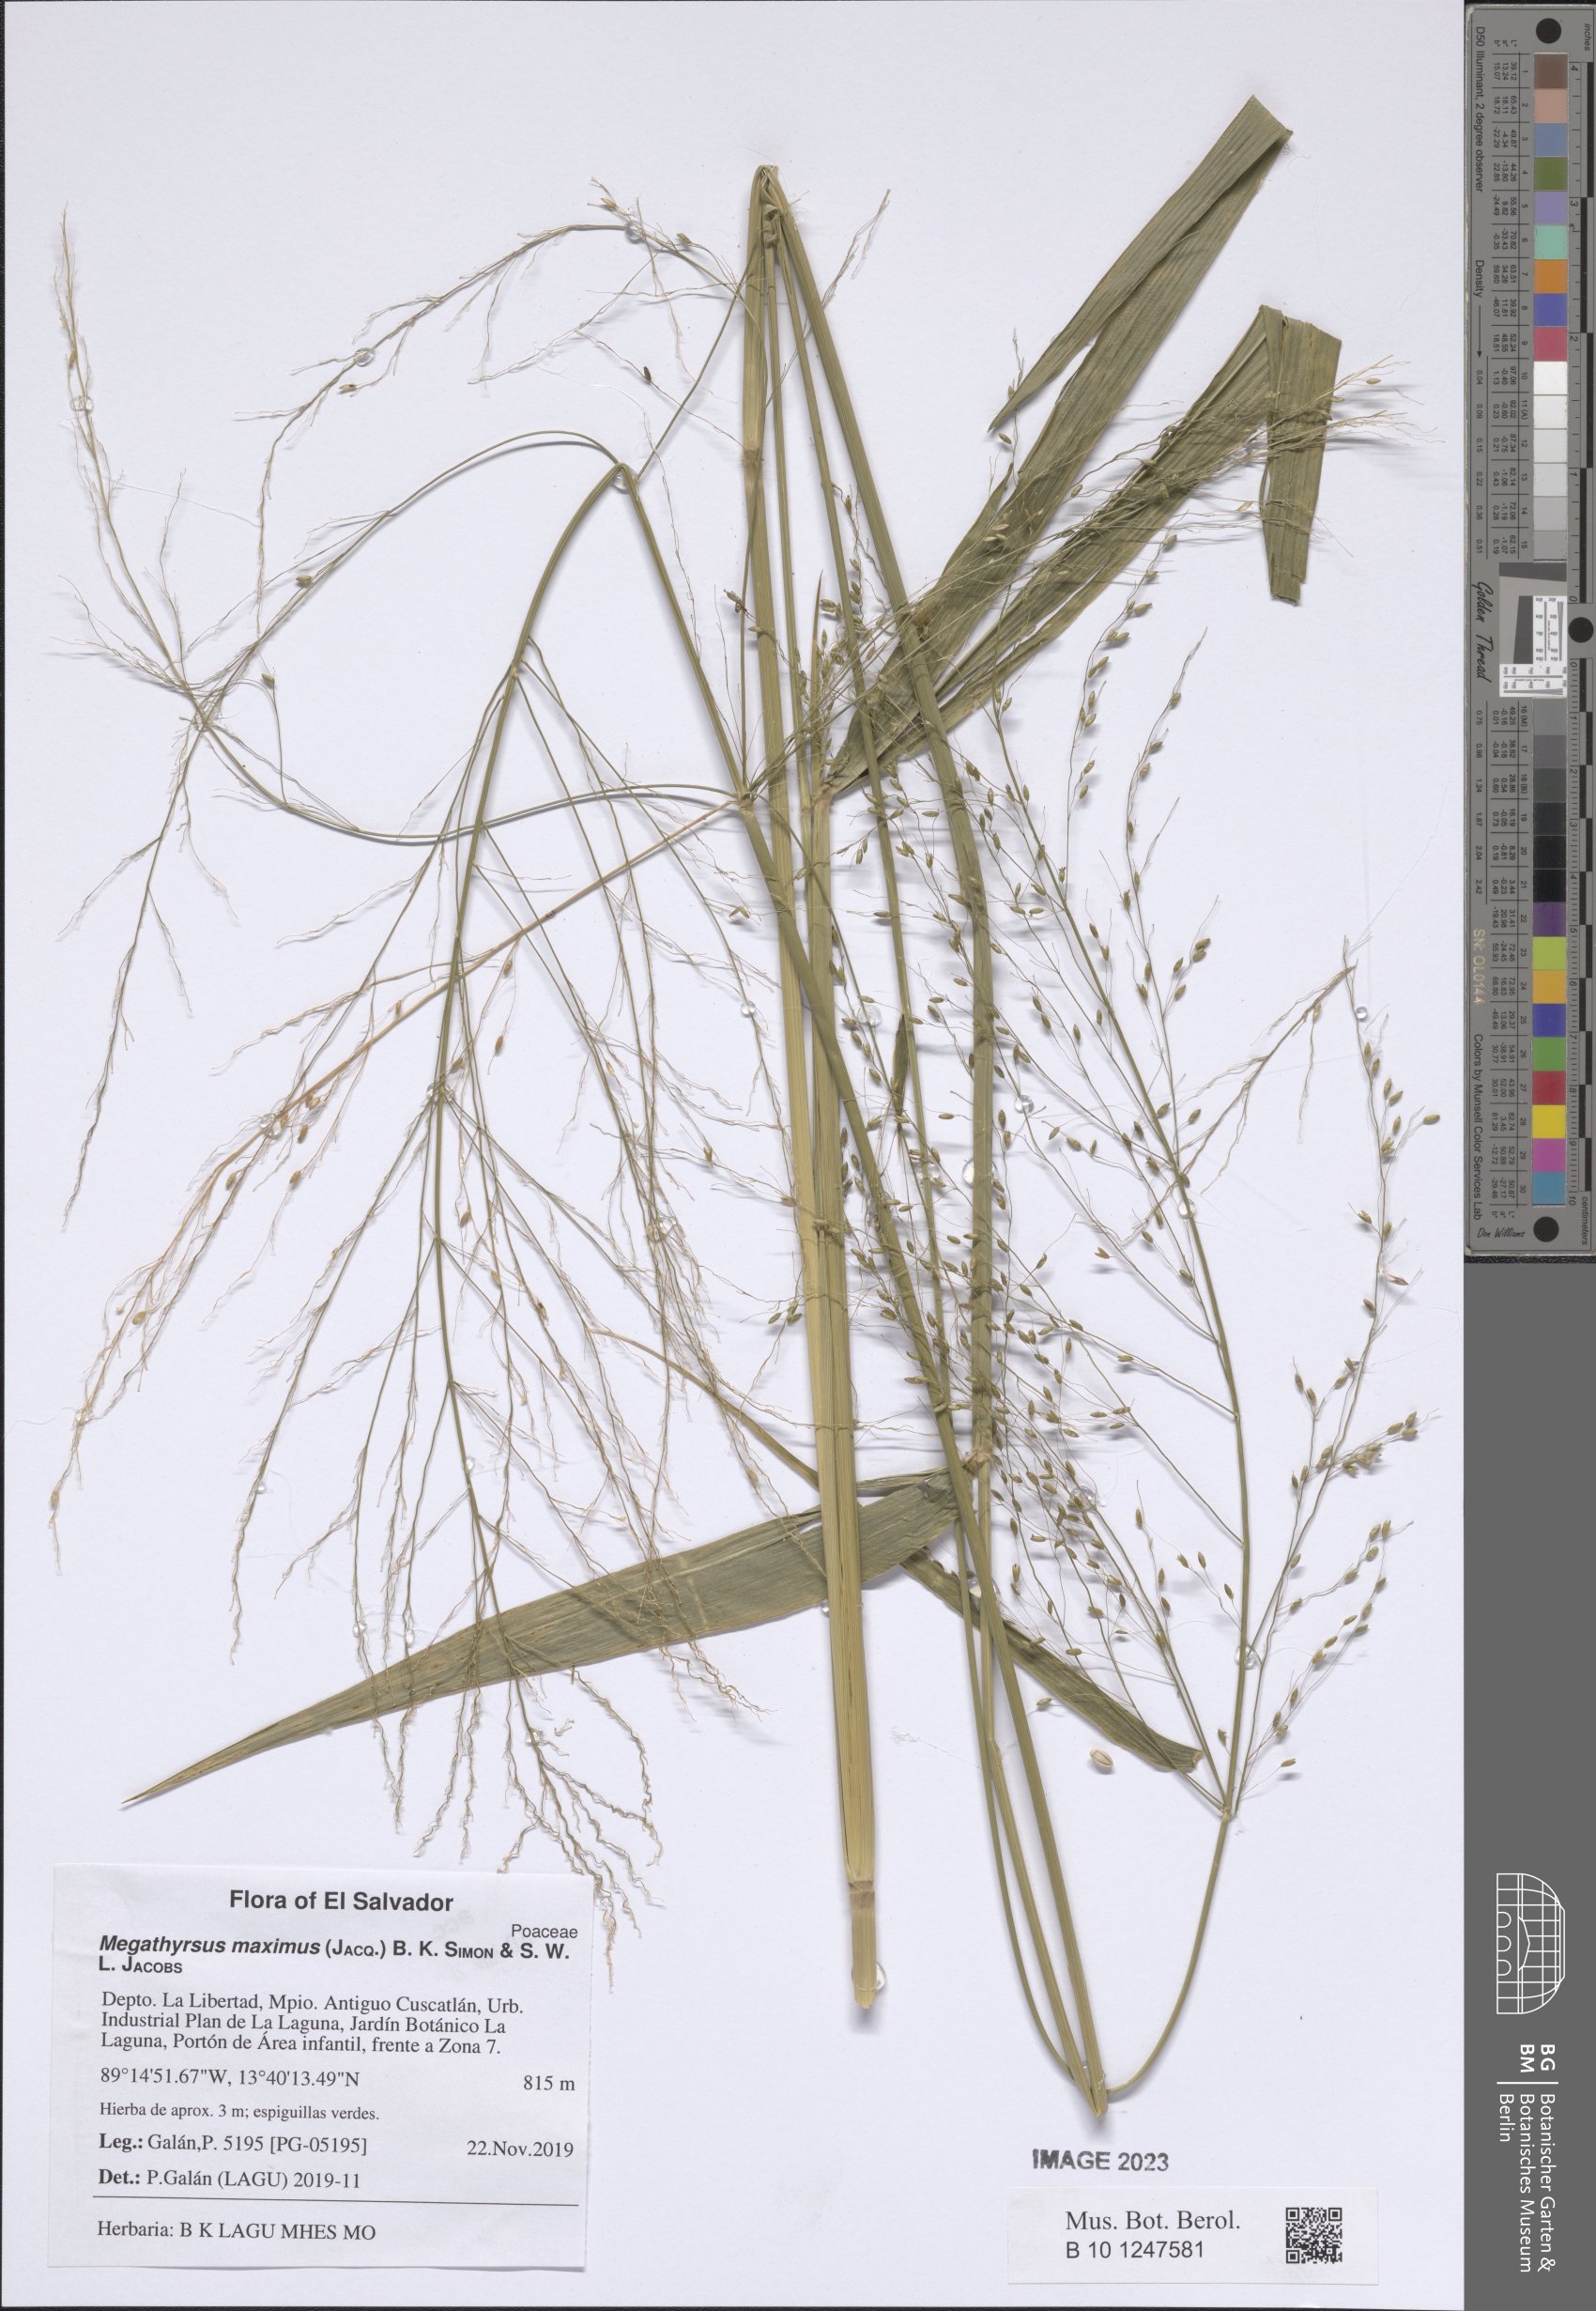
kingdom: Plantae
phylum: Tracheophyta
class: Liliopsida
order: Poales
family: Poaceae
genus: Megathyrsus
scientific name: Megathyrsus maximus
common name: Guineagrass
